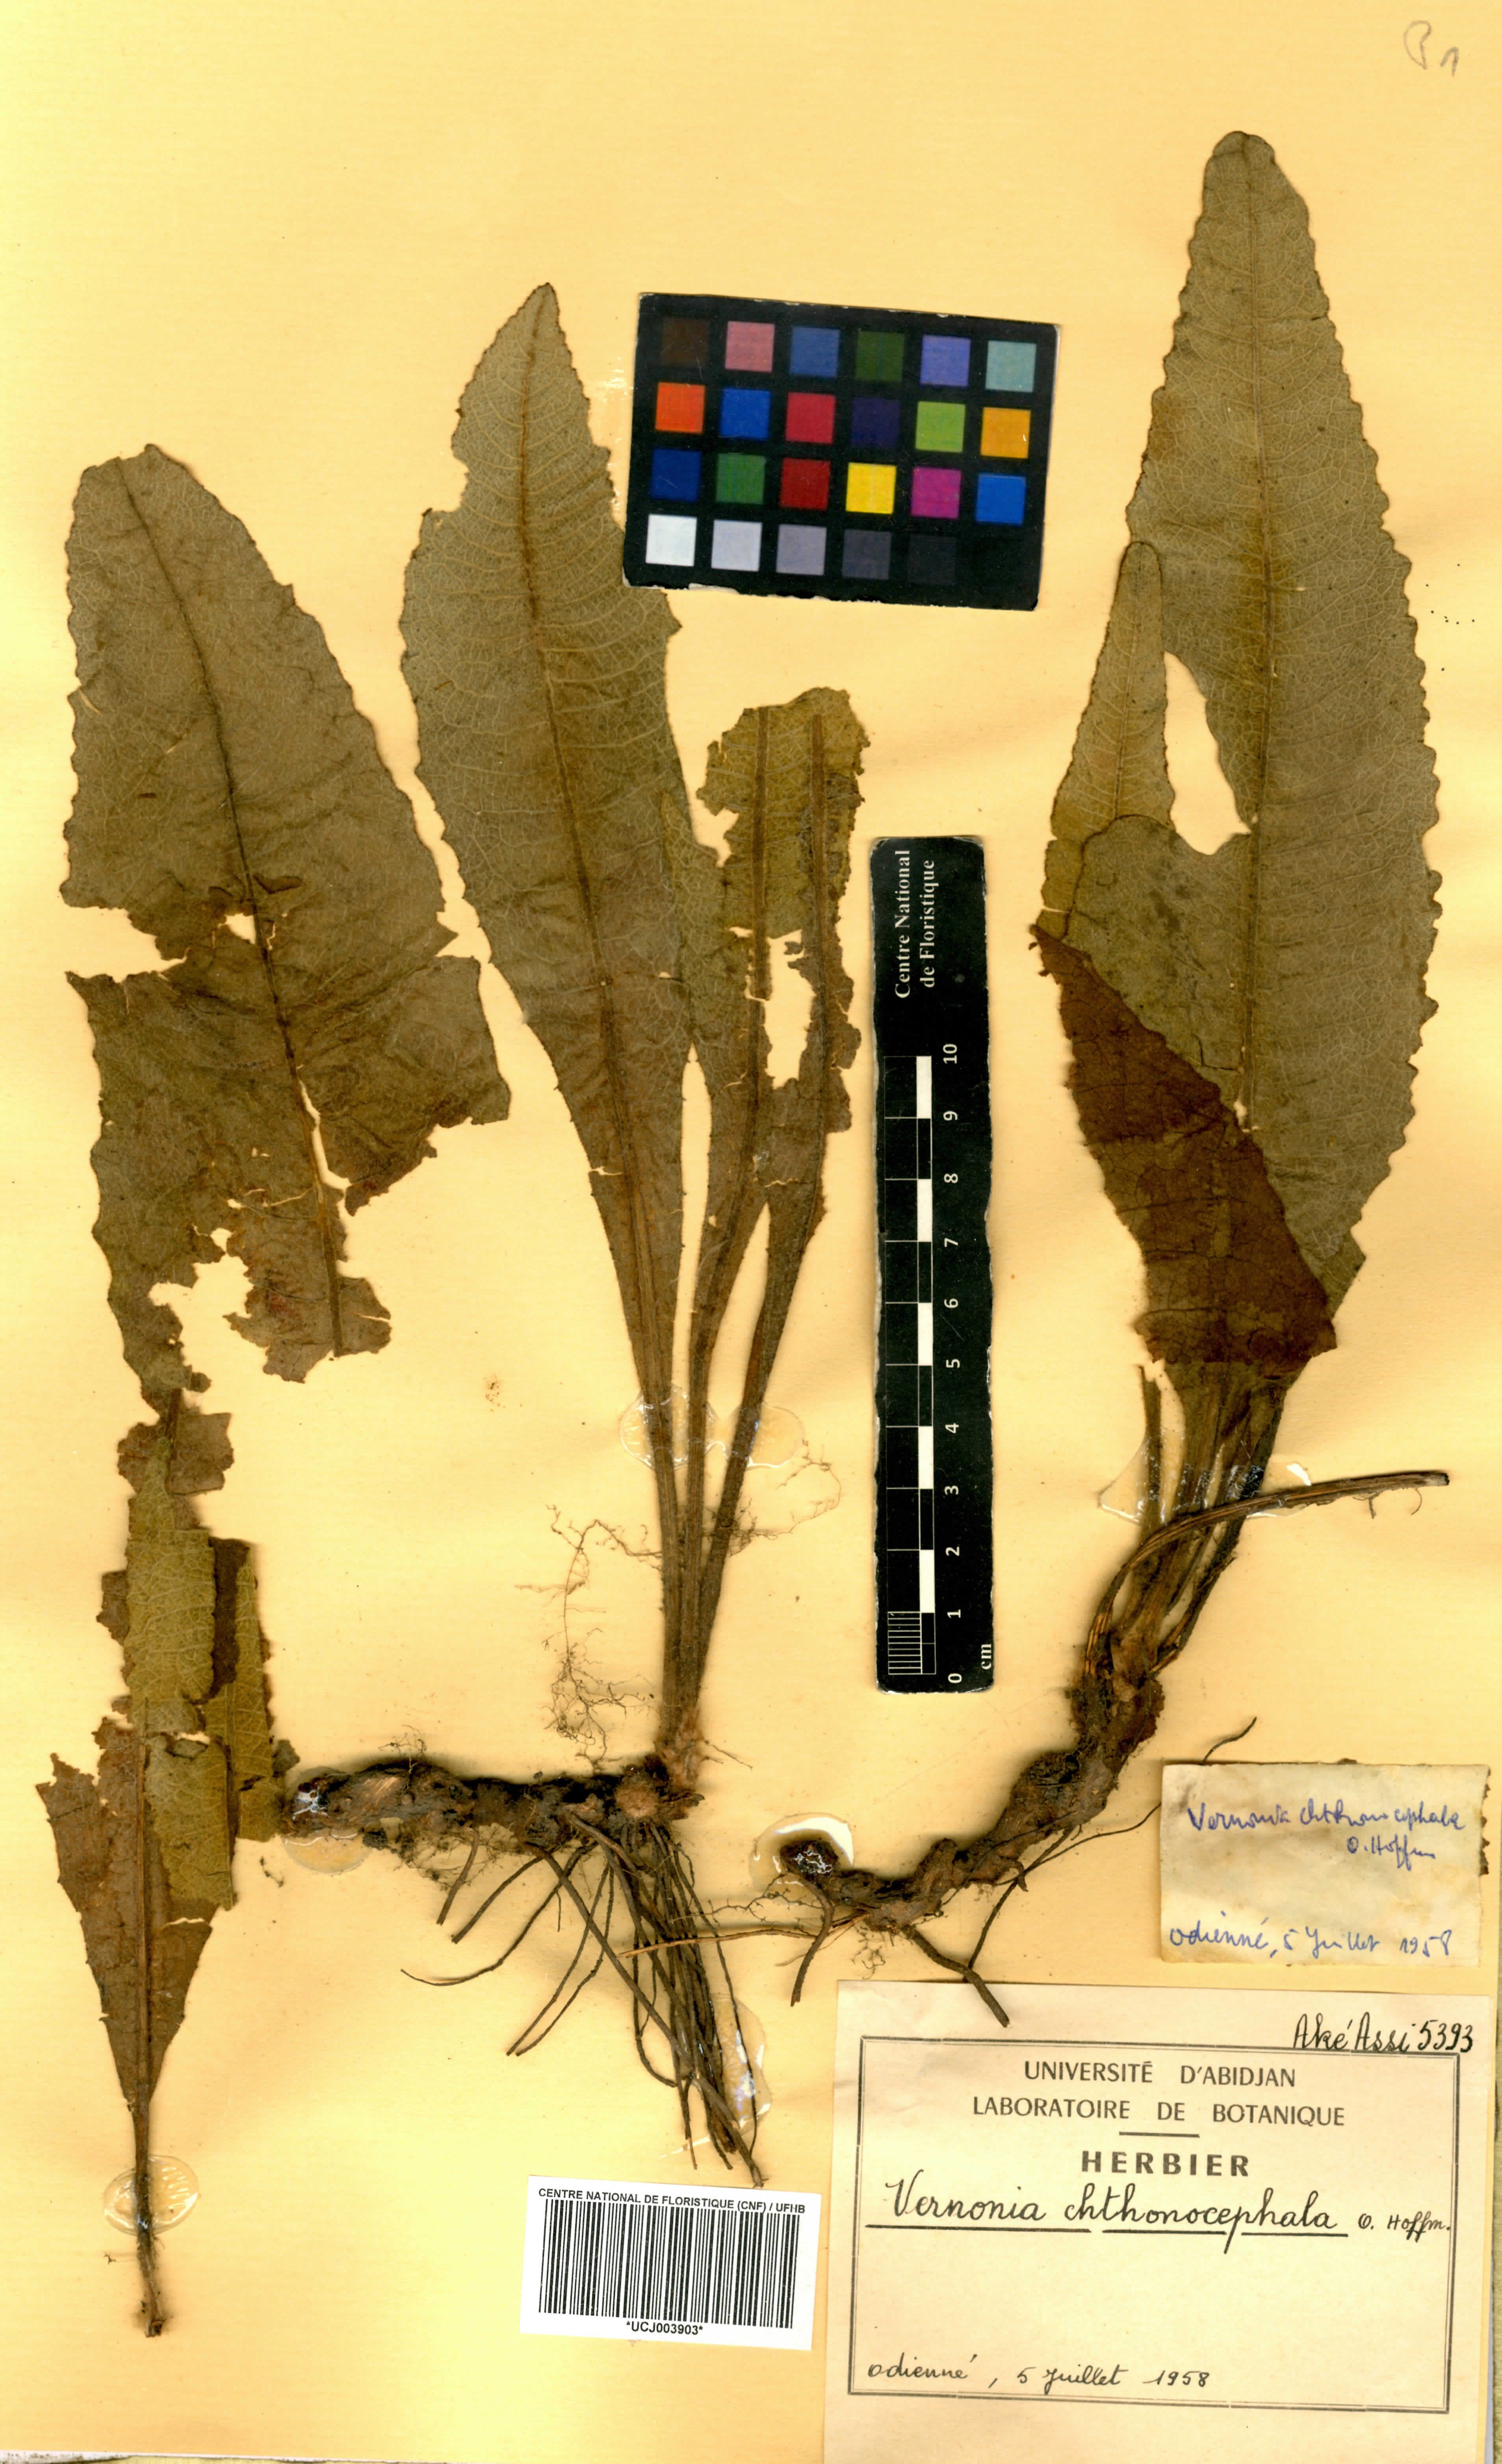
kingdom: Plantae
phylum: Tracheophyta
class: Magnoliopsida
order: Asterales
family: Asteraceae
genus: Vernonella
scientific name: Vernonella chthonocephala
